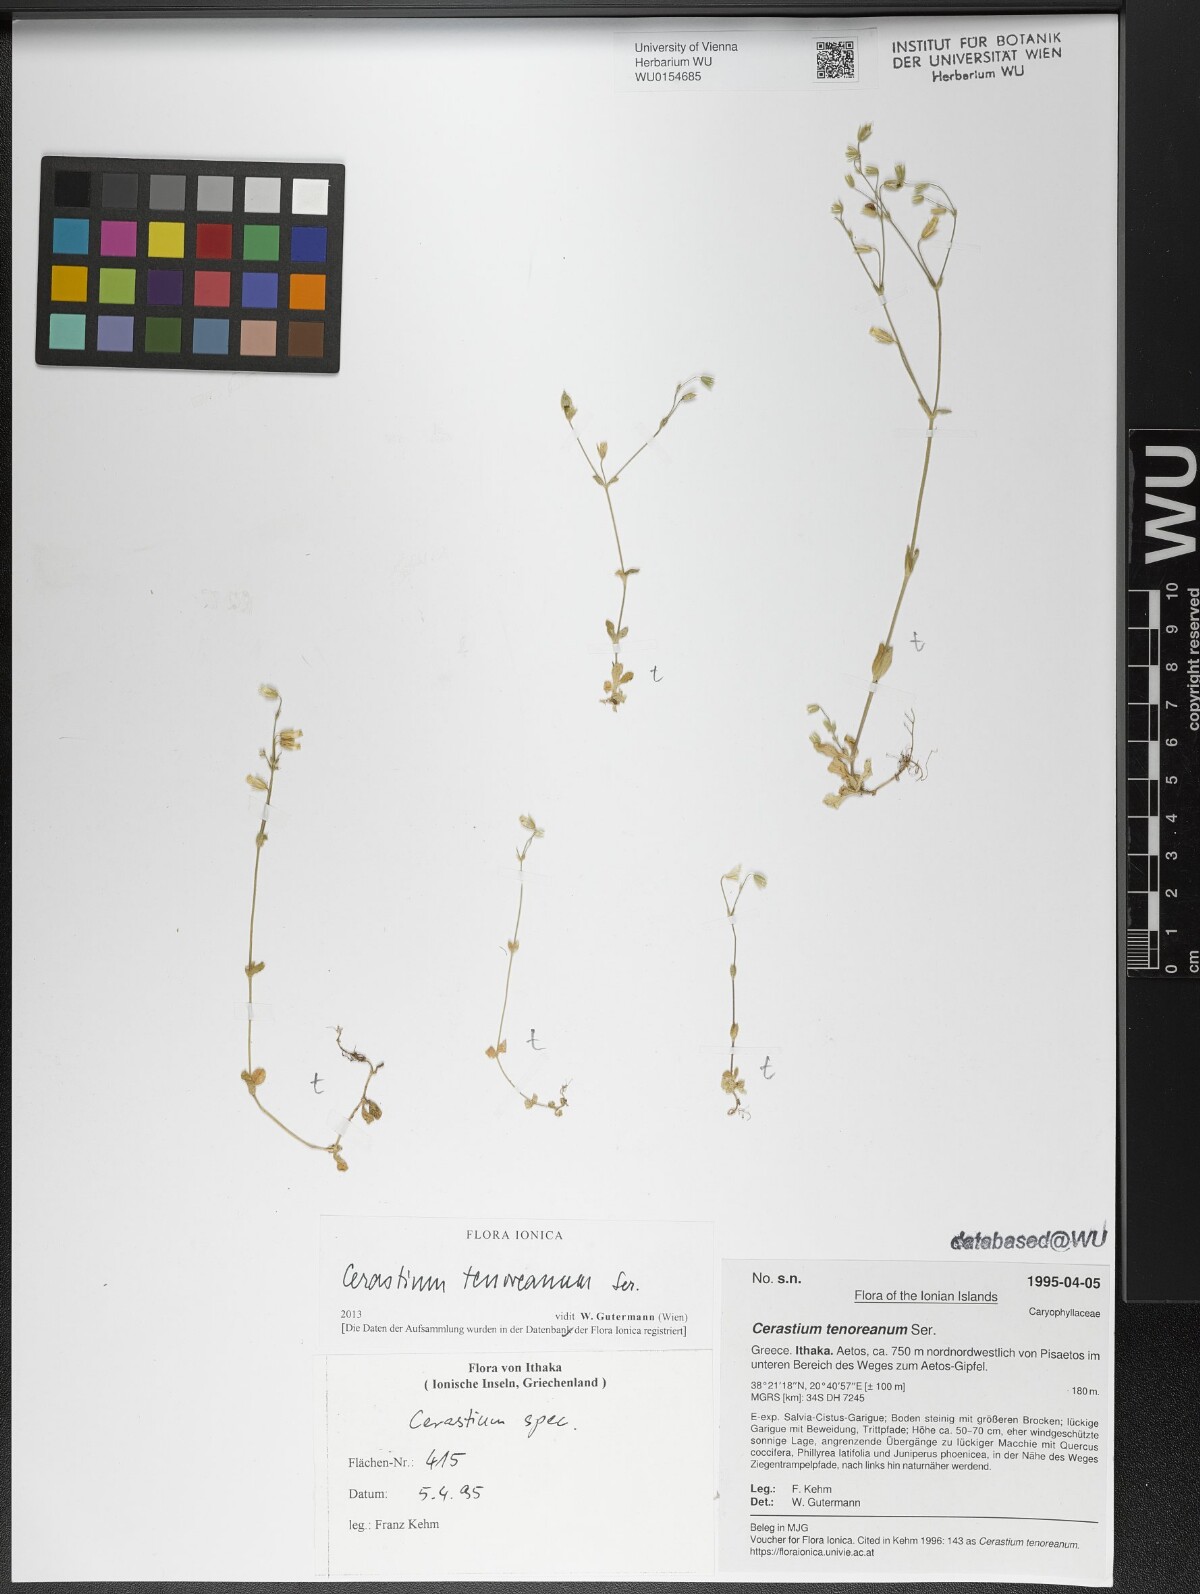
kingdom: Plantae
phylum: Tracheophyta
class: Magnoliopsida
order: Caryophyllales
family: Caryophyllaceae
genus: Cerastium
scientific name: Cerastium tenoreanum
